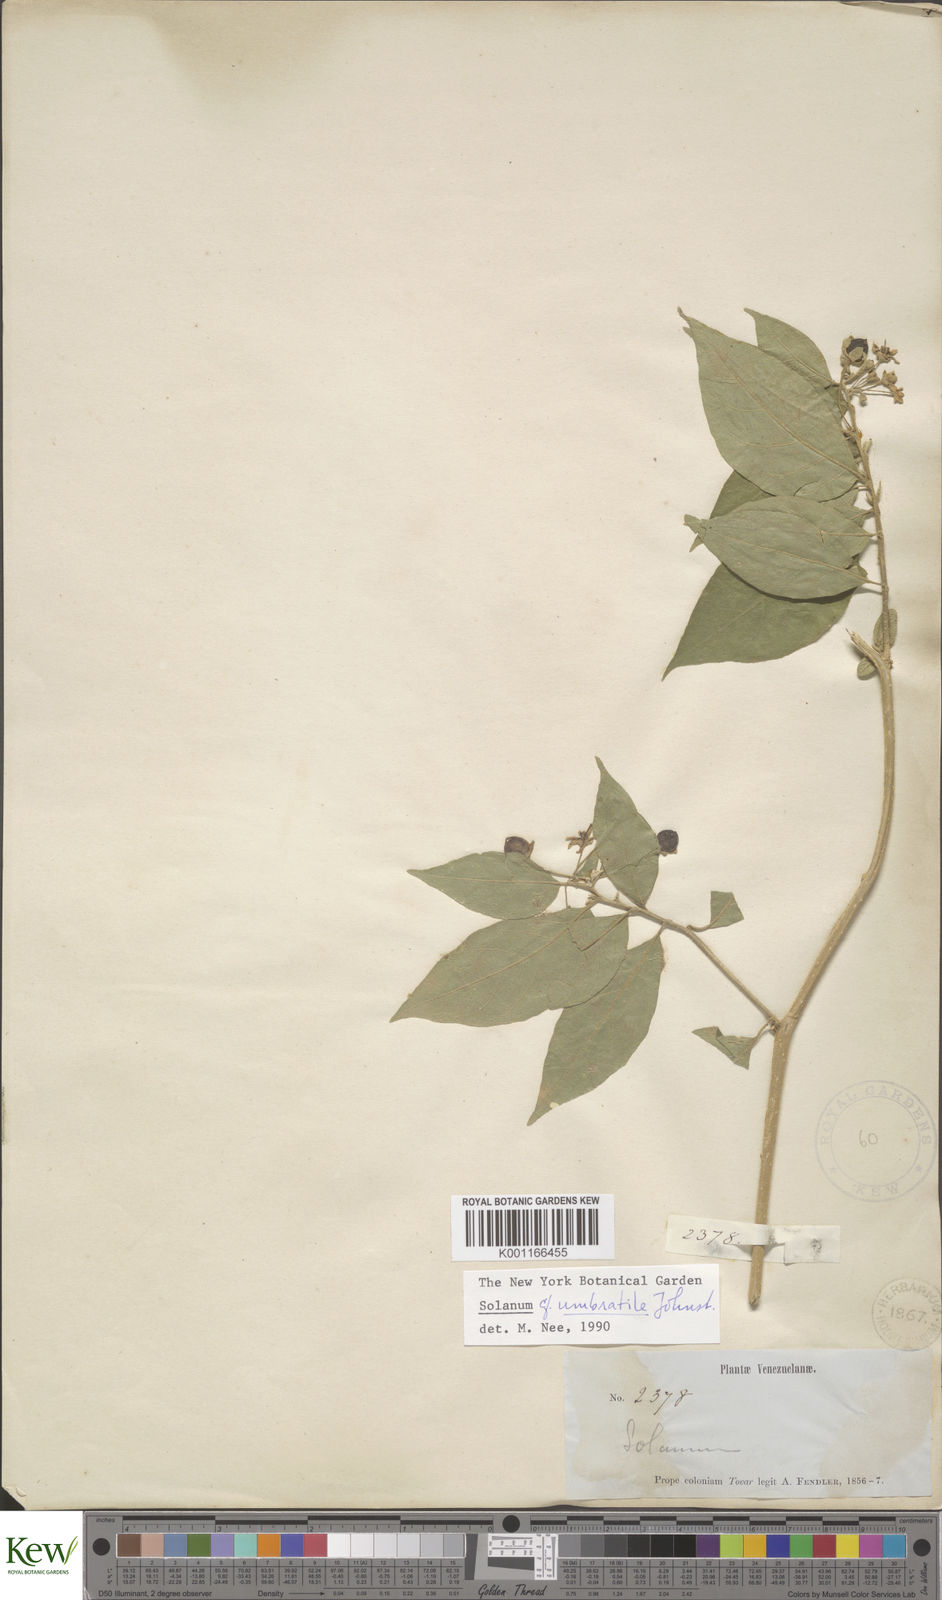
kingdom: Plantae
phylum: Tracheophyta
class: Magnoliopsida
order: Solanales
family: Solanaceae
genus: Capsicum
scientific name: Capsicum rhomboideum
